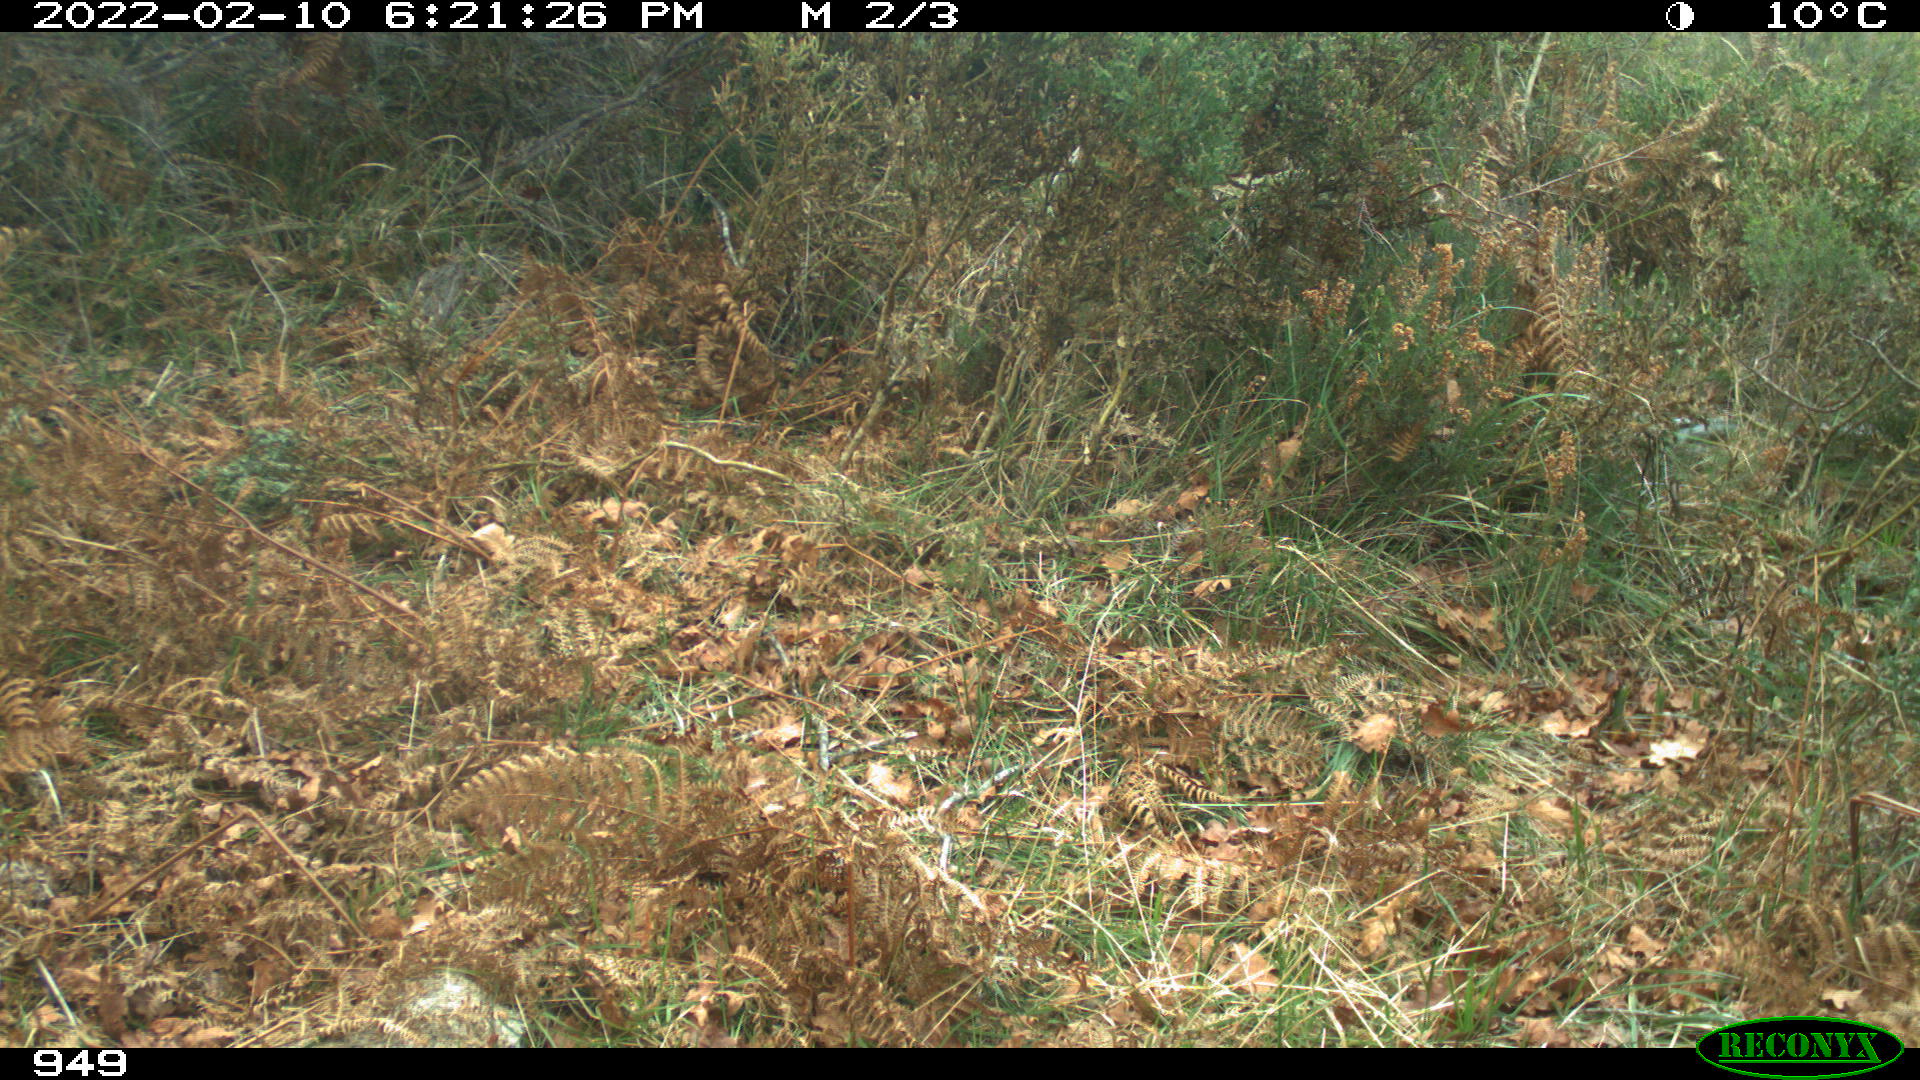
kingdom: Animalia
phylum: Chordata
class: Mammalia
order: Artiodactyla
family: Suidae
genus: Sus
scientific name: Sus scrofa
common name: Wild boar
